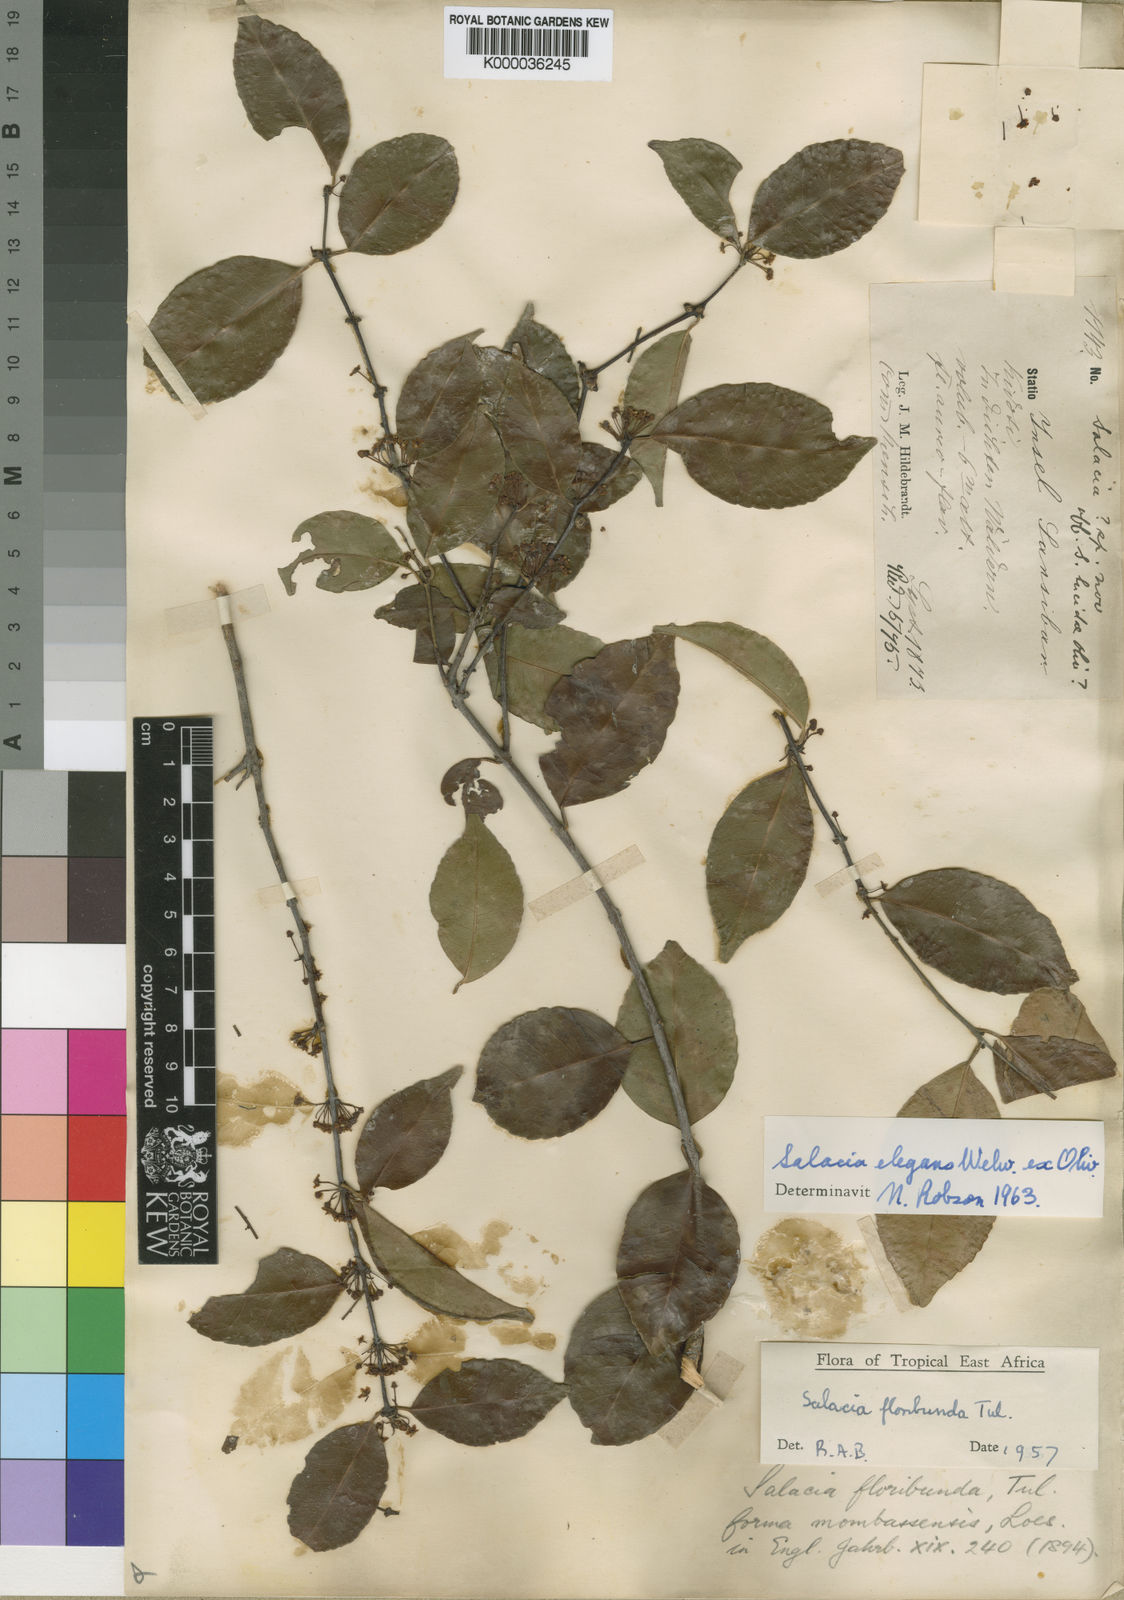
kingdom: Plantae
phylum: Tracheophyta
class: Magnoliopsida
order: Celastrales
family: Celastraceae
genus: Salacia
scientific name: Salacia elegans
